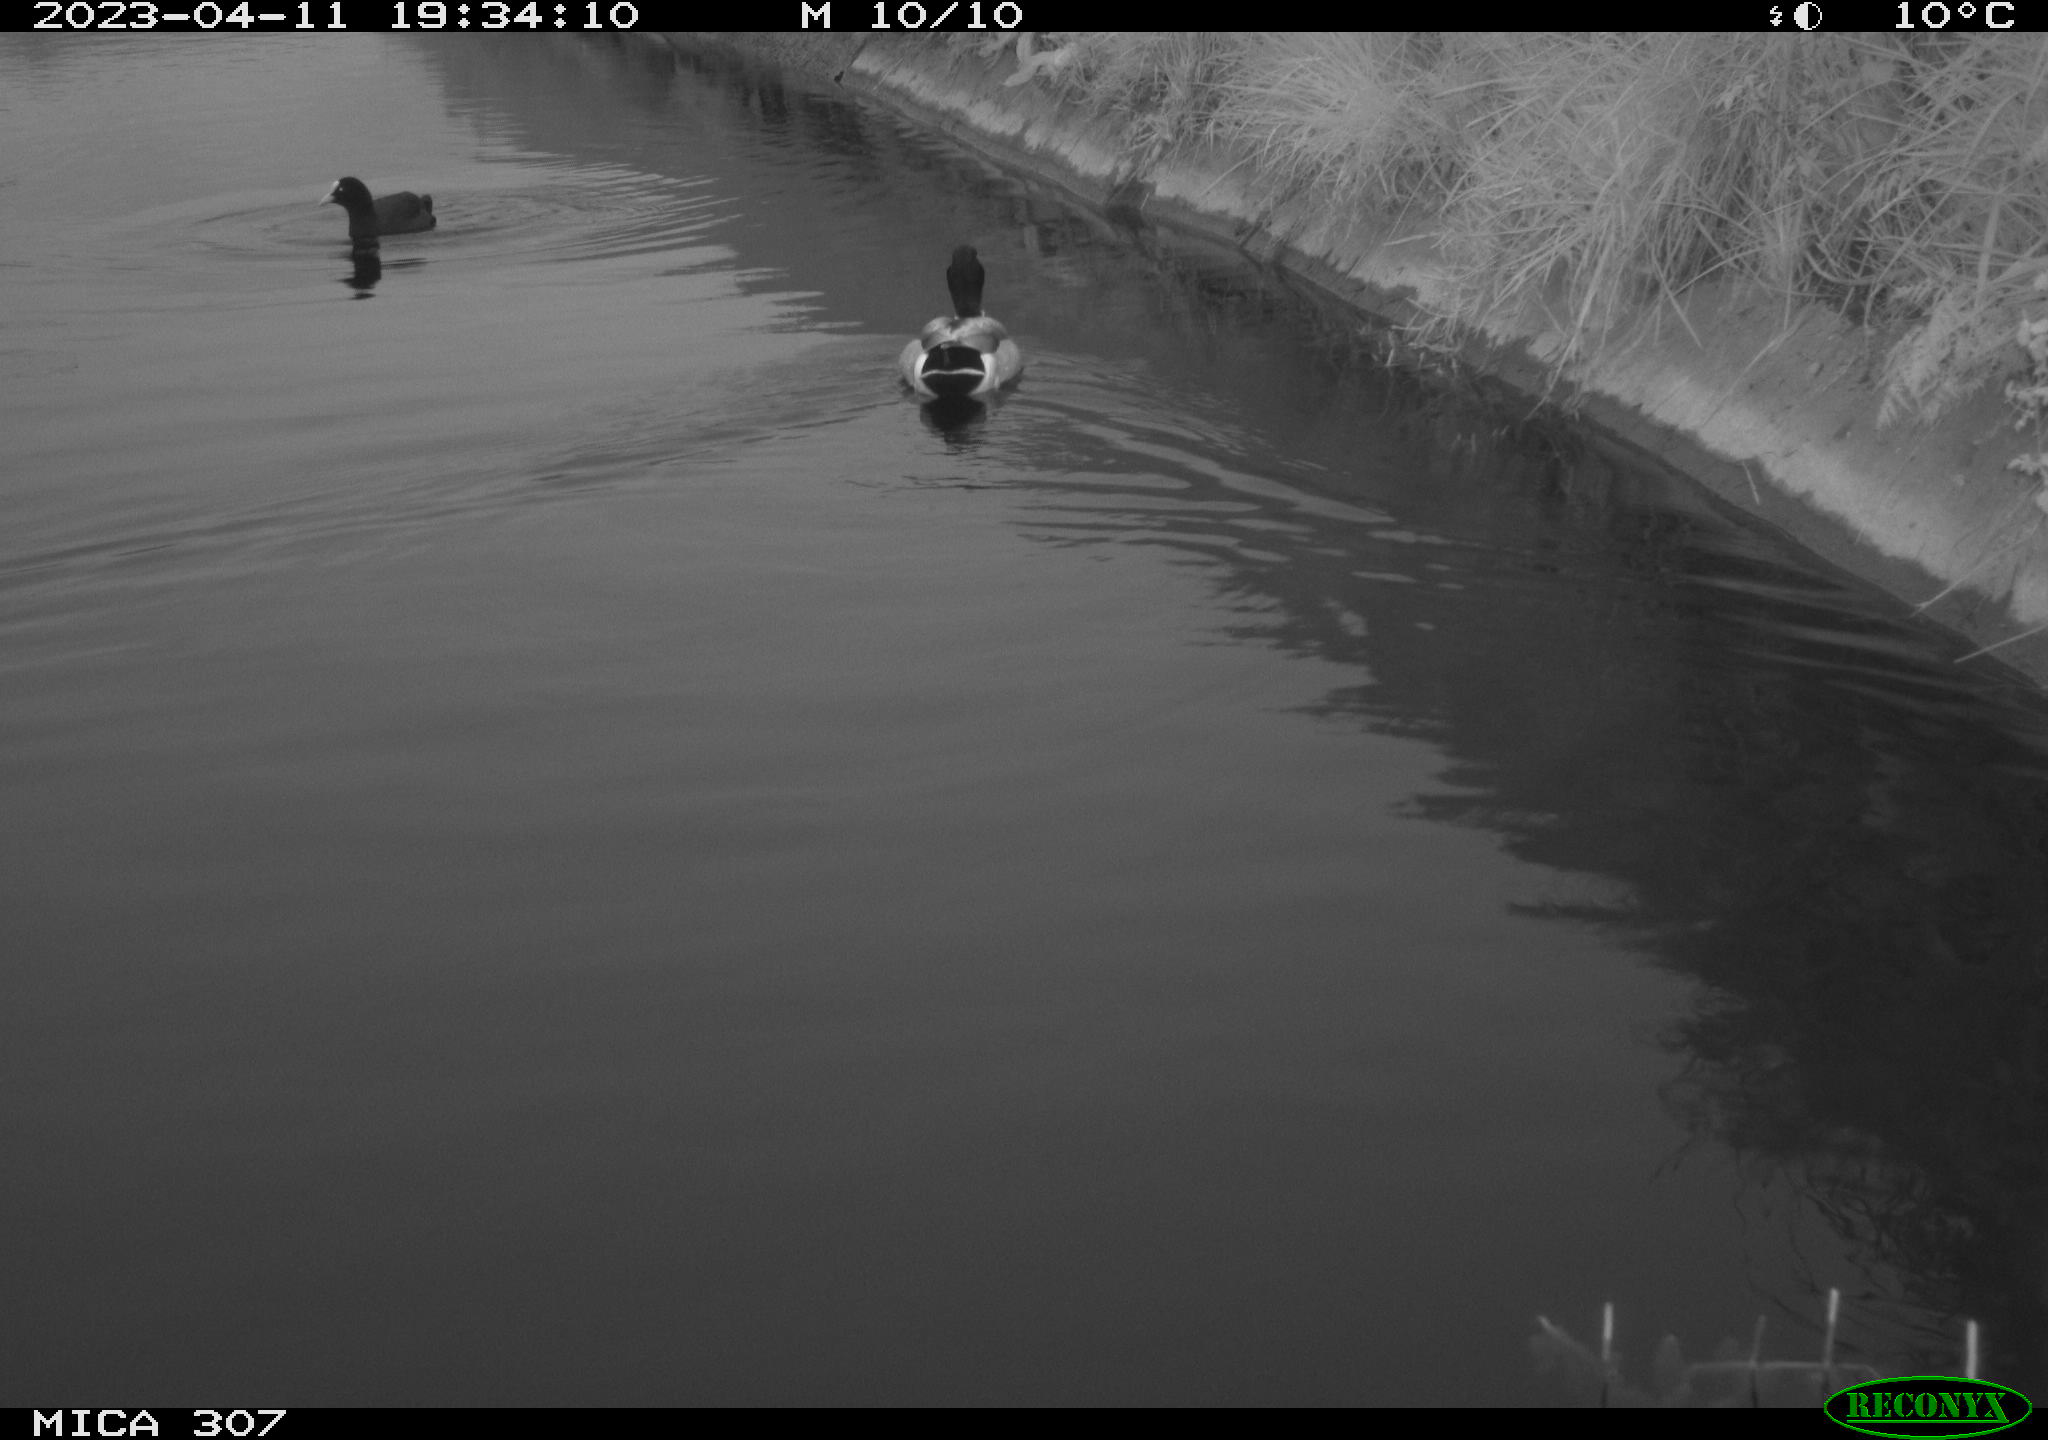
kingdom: Animalia
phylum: Chordata
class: Aves
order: Anseriformes
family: Anatidae
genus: Anas
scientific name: Anas
